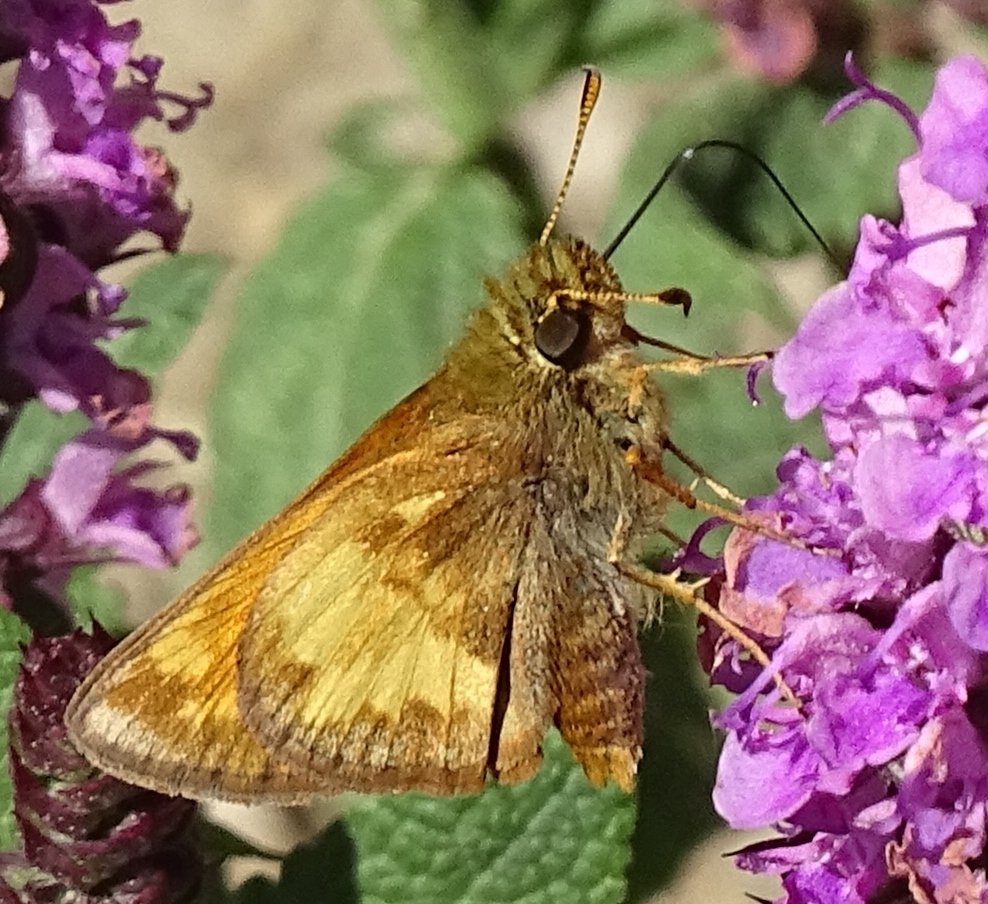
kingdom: Animalia
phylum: Arthropoda
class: Insecta
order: Lepidoptera
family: Hesperiidae
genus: Lon
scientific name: Lon hobomok
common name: Hobomok Skipper
